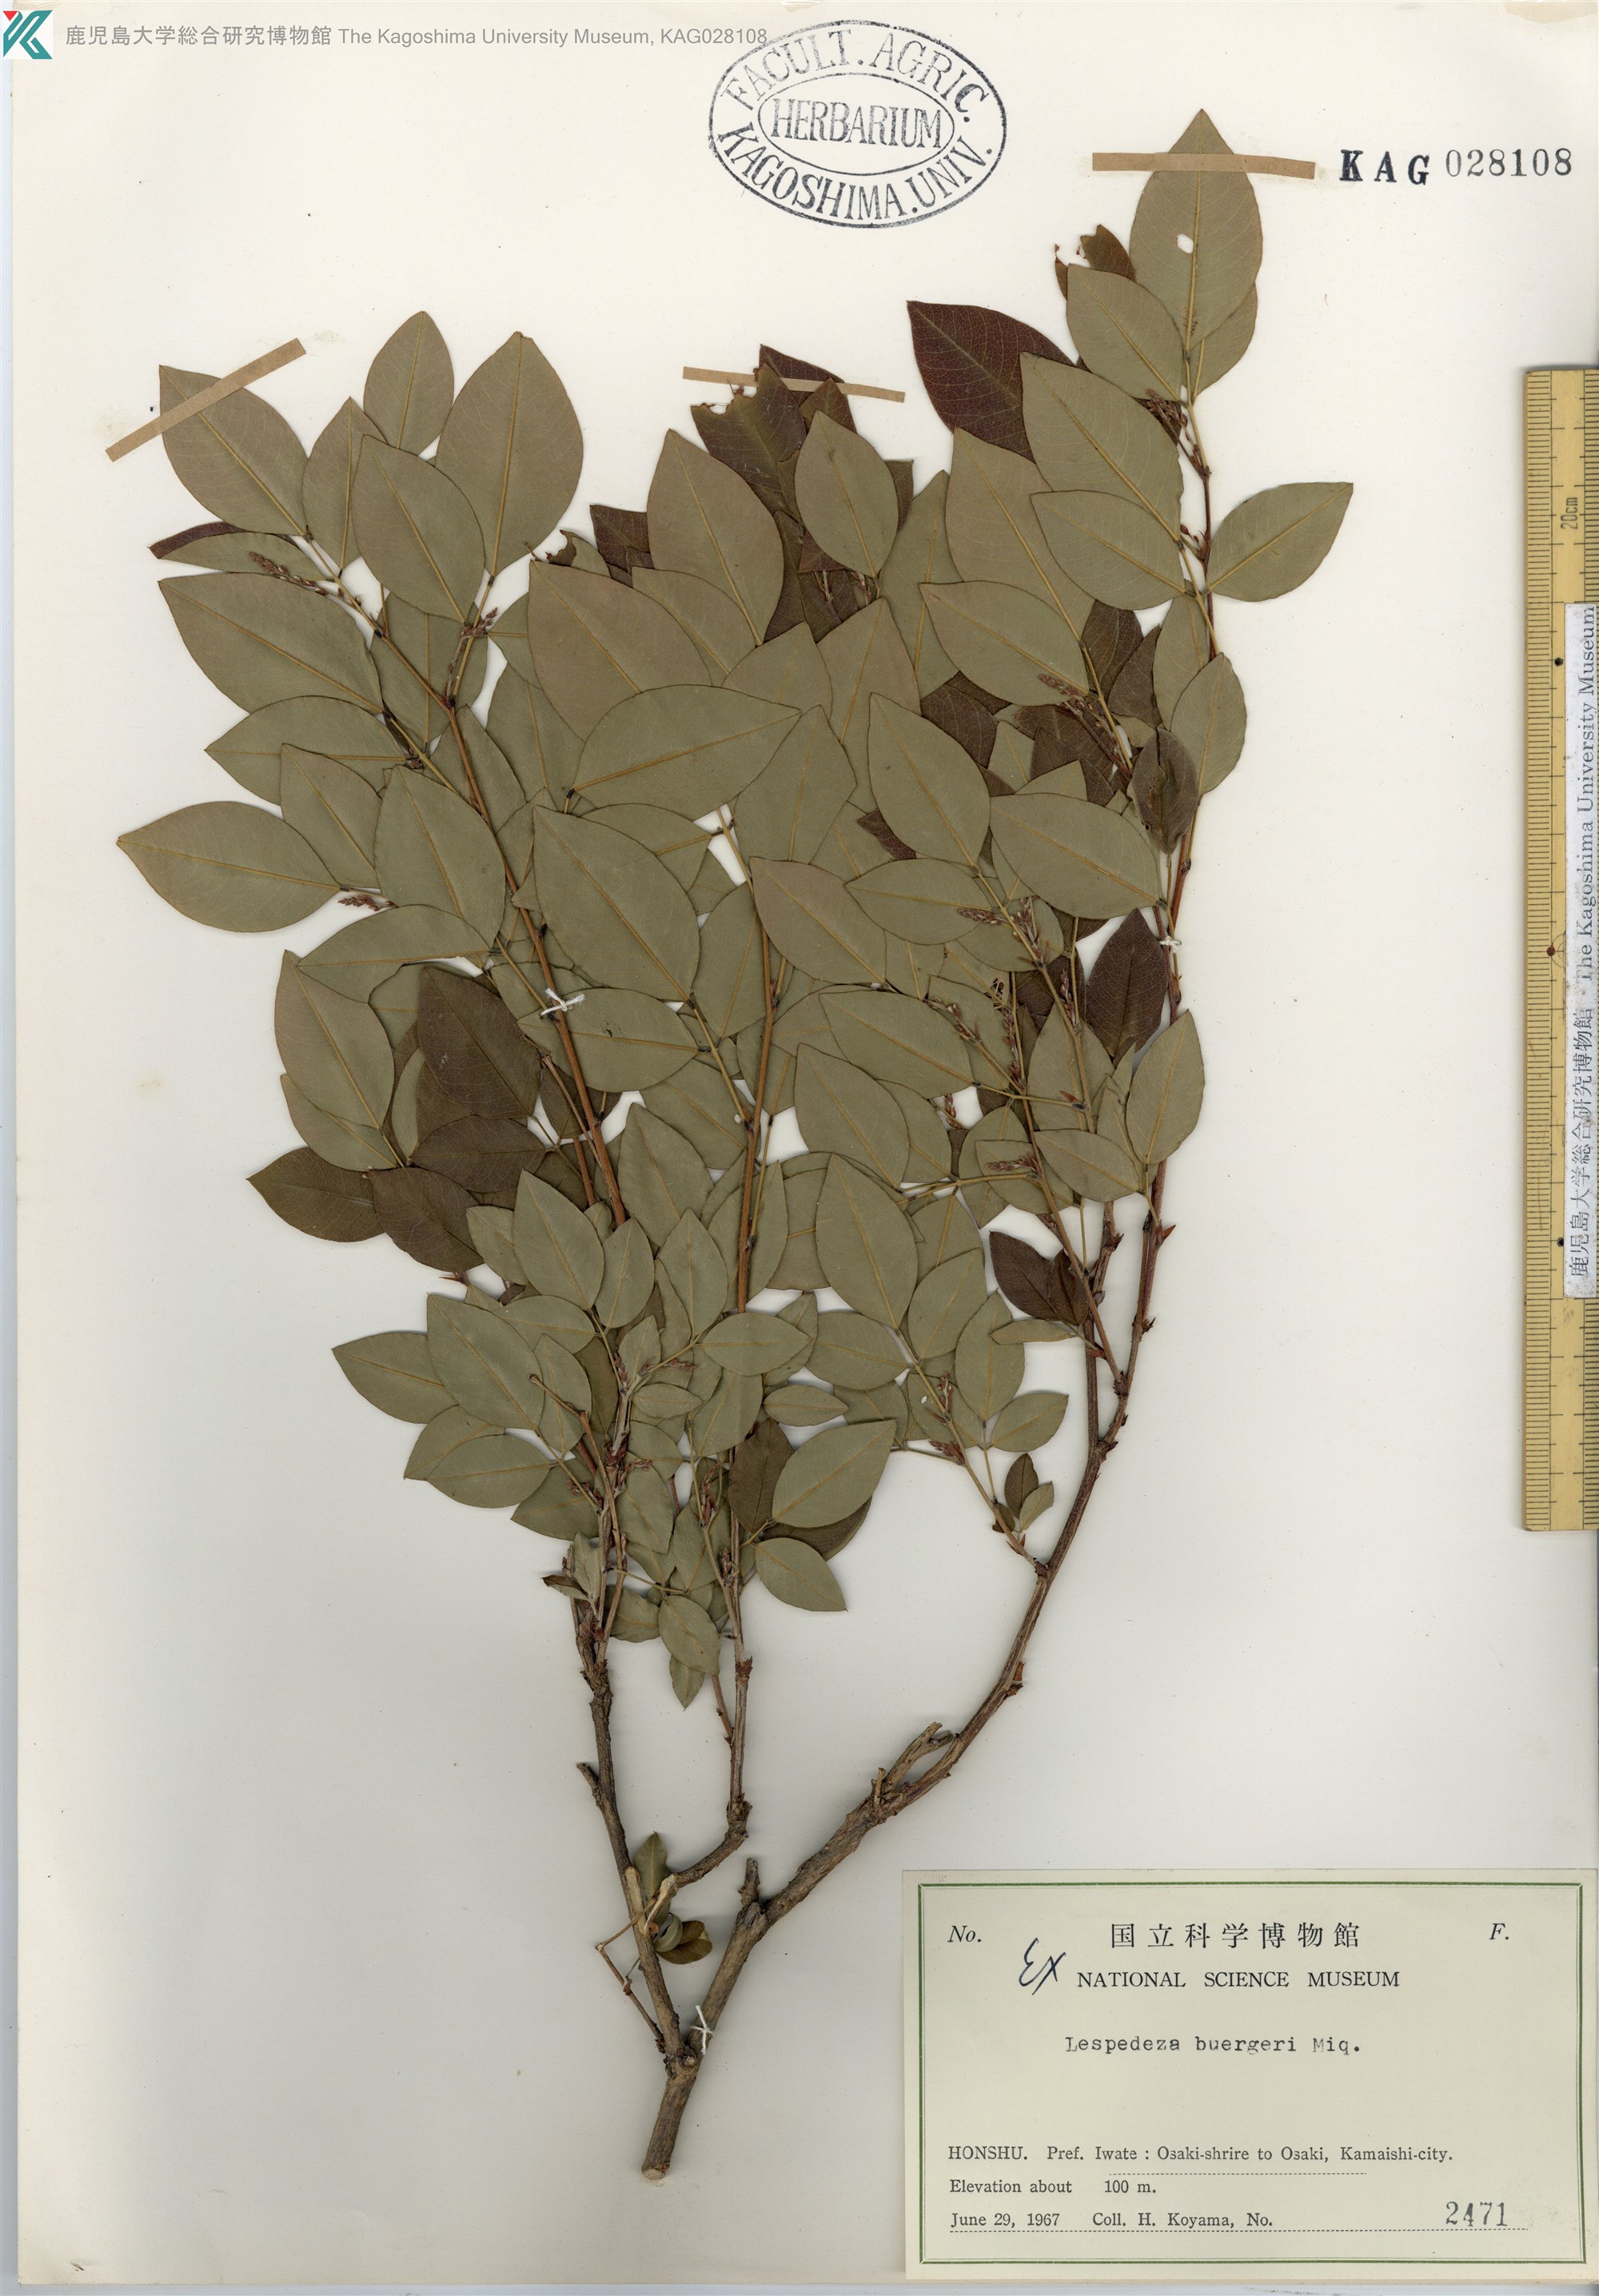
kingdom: Plantae
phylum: Tracheophyta
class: Magnoliopsida
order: Fabales
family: Fabaceae
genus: Lespedeza
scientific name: Lespedeza buergeri
